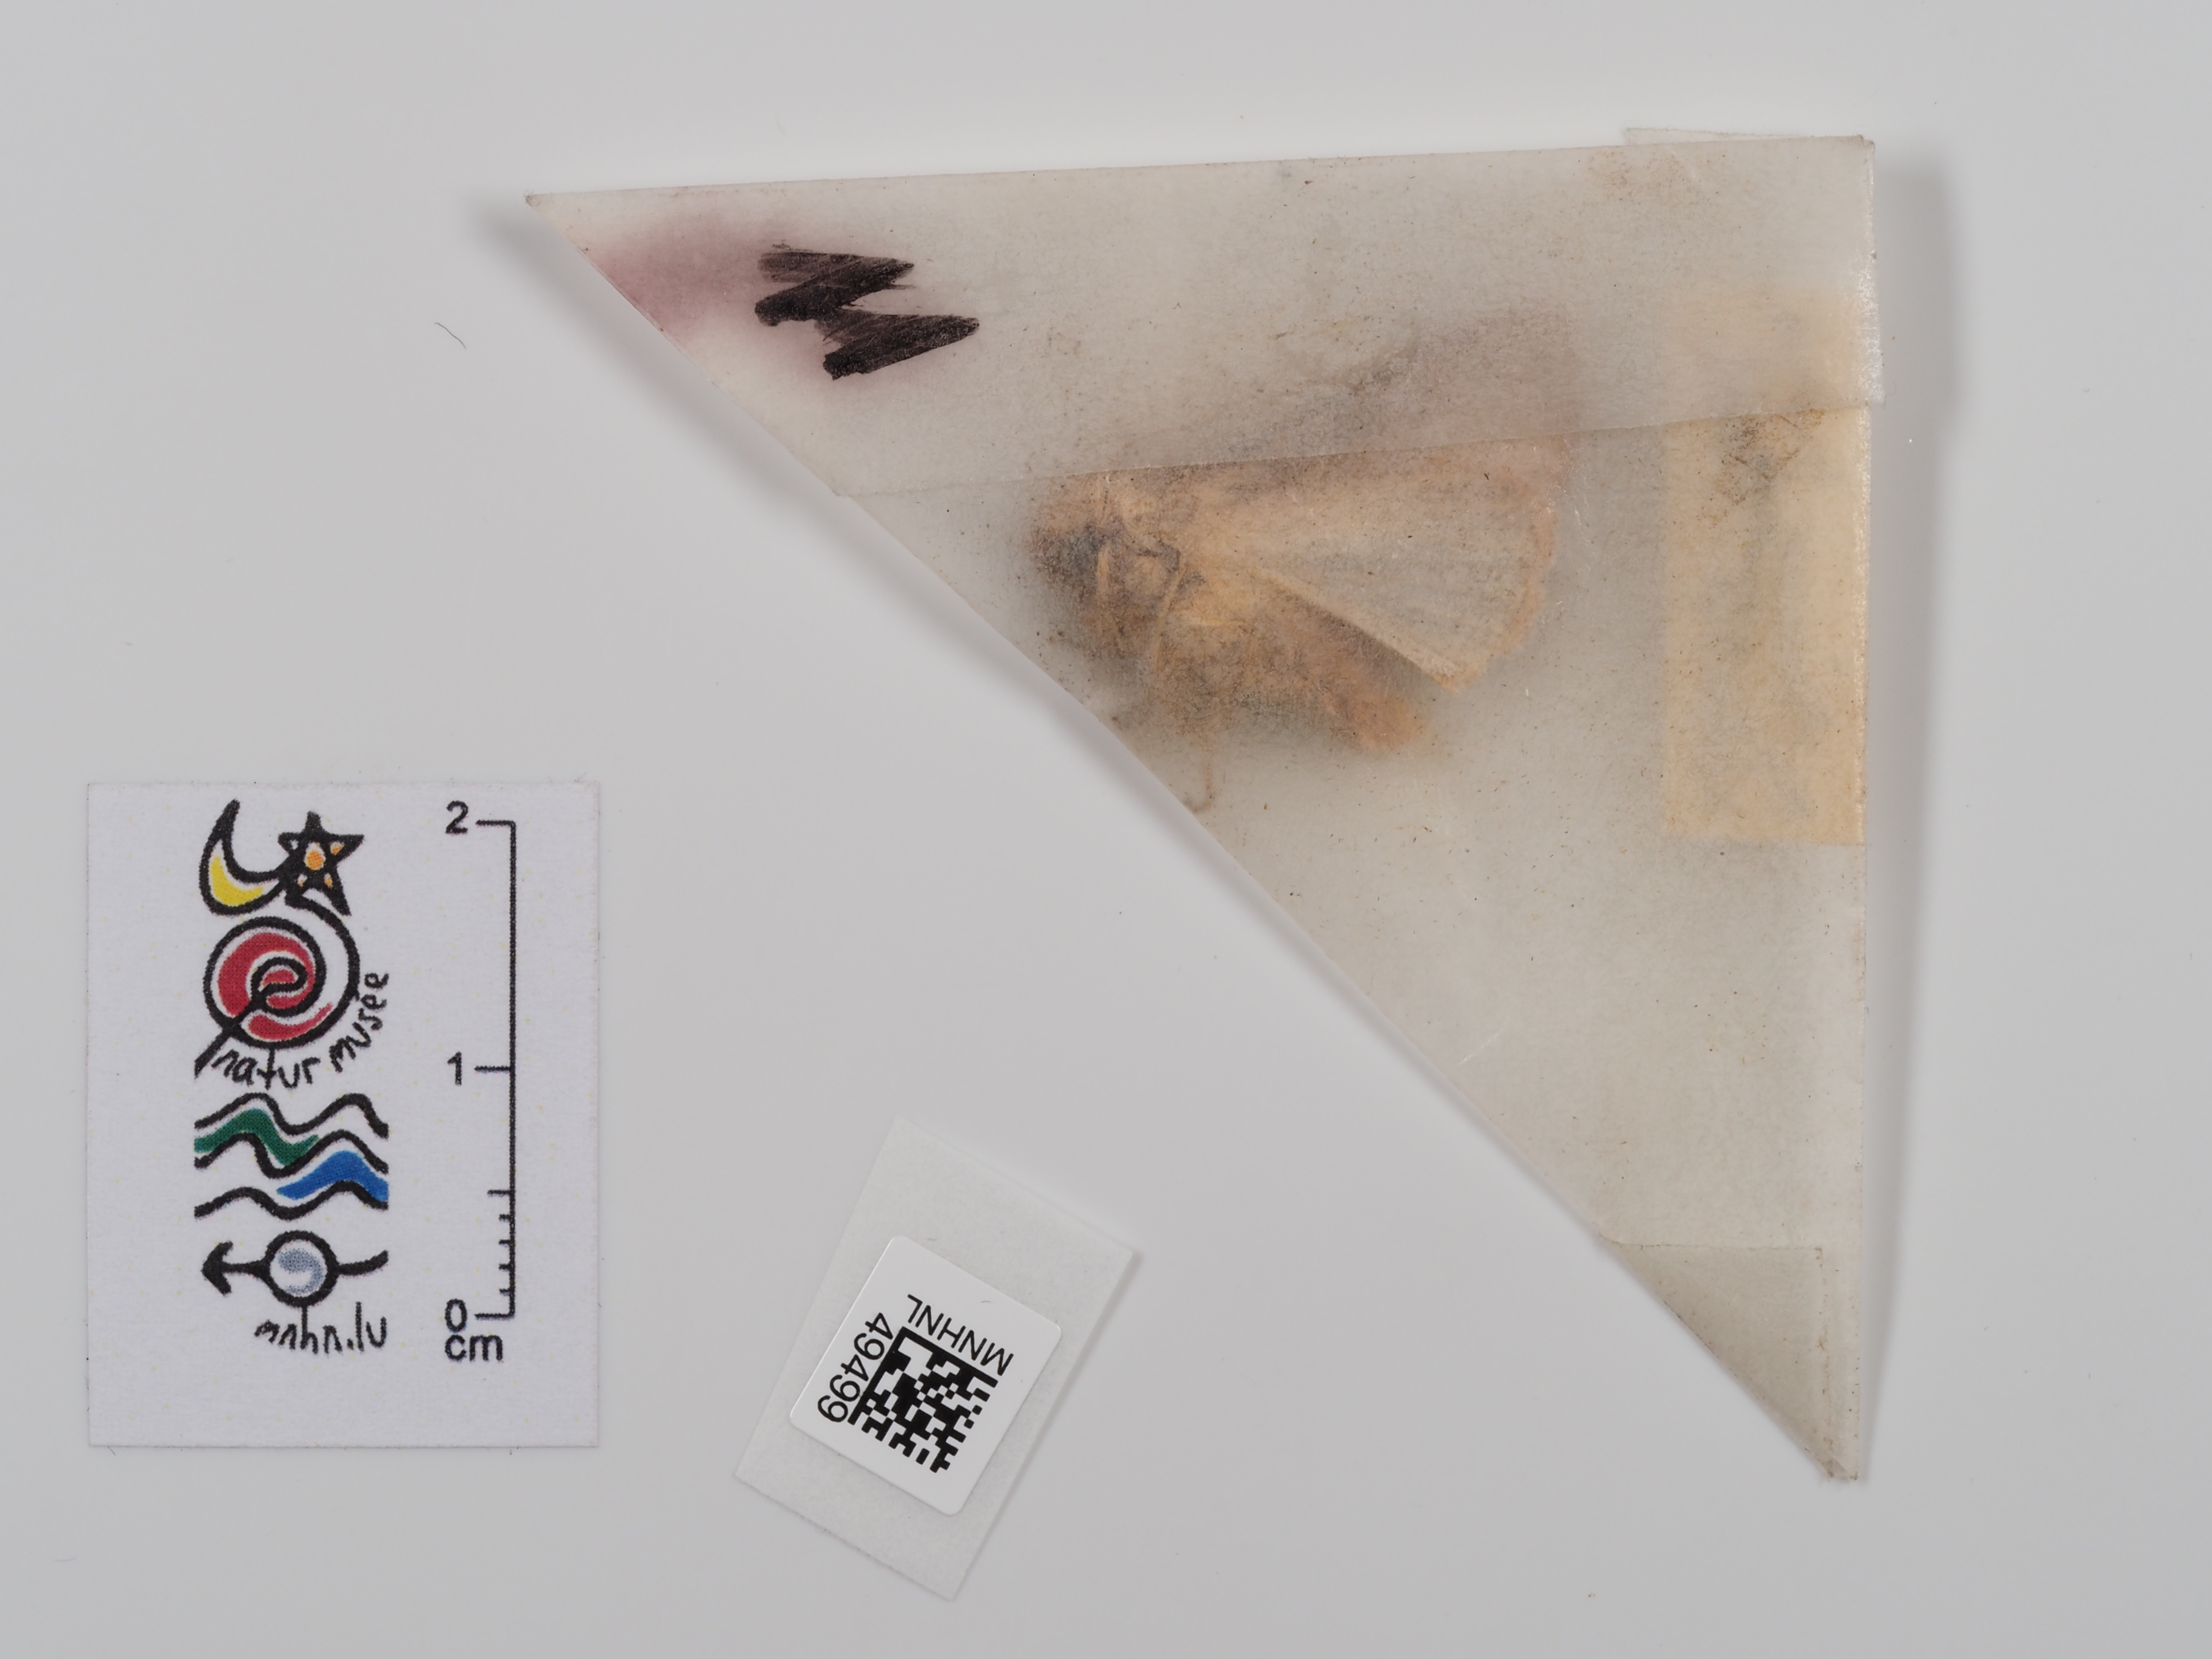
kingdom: Animalia
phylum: Arthropoda
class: Insecta
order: Lepidoptera
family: Noctuidae
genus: Mythimna
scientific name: Mythimna ferrago
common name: Clay
